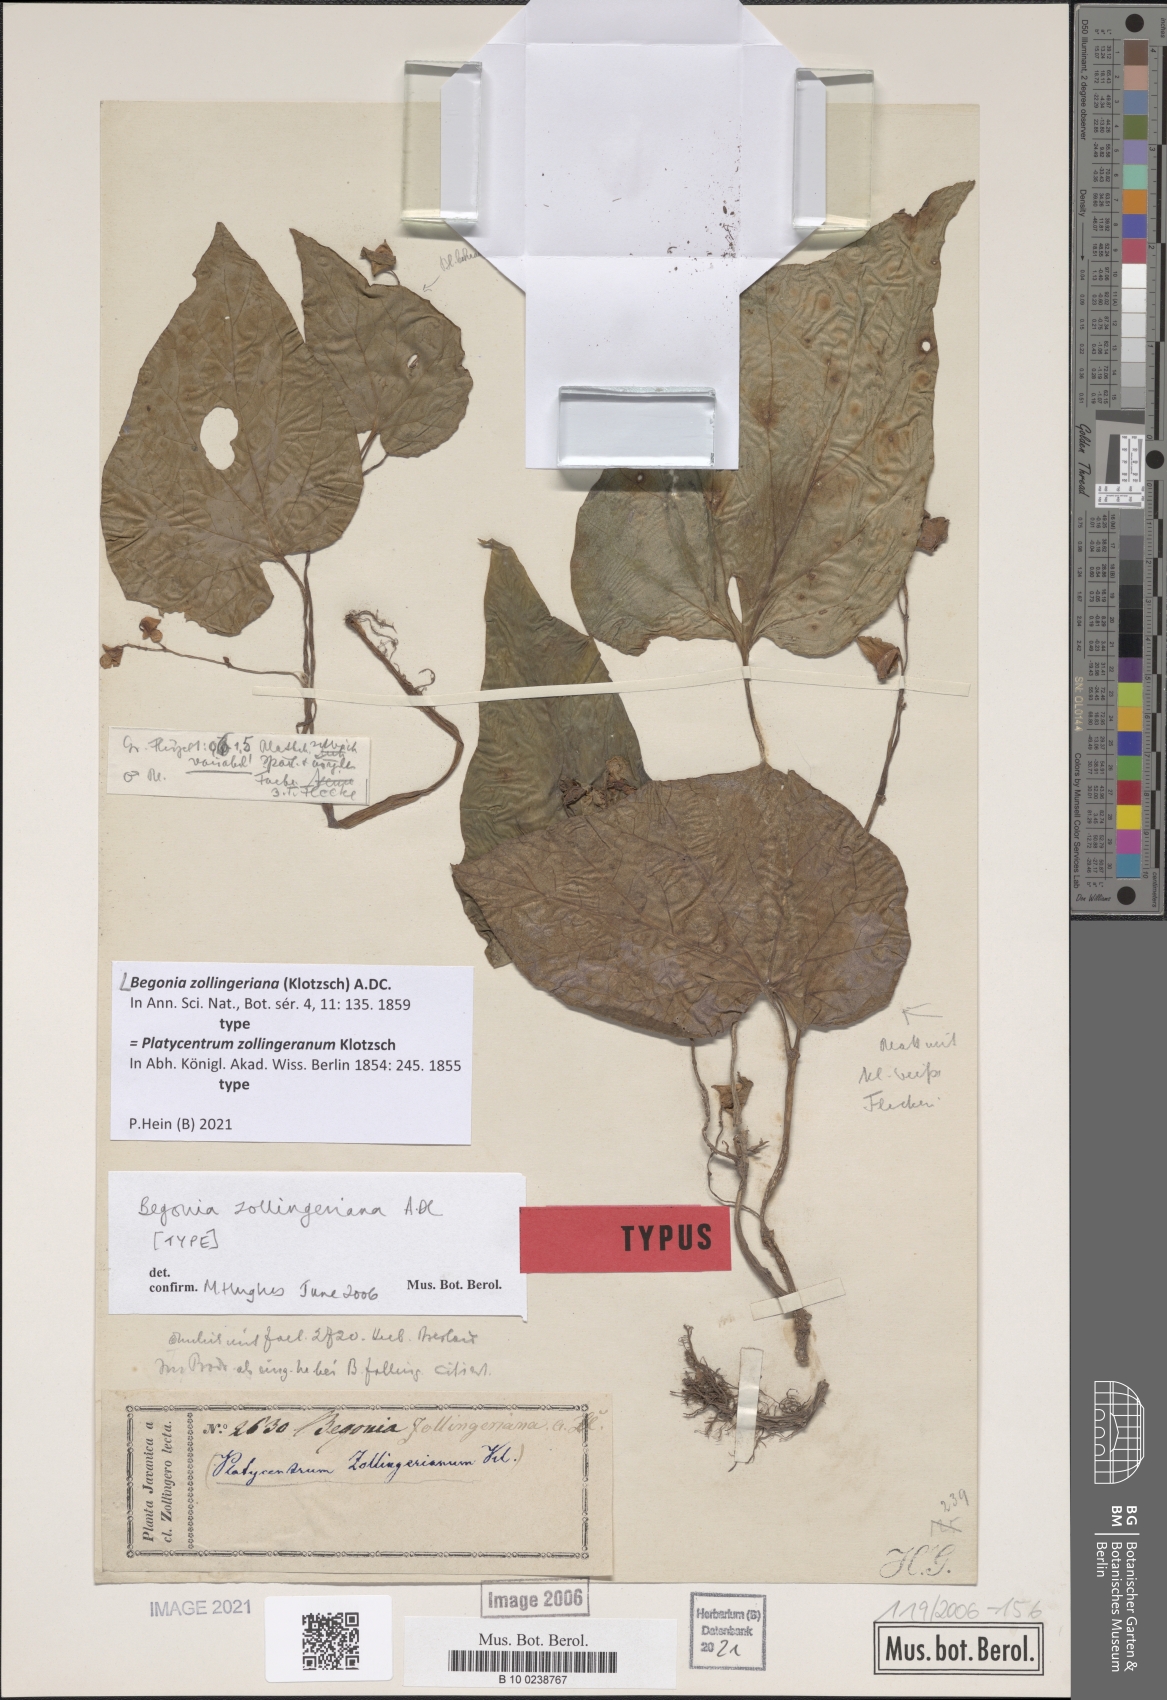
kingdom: Plantae
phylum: Tracheophyta
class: Magnoliopsida
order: Cucurbitales
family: Begoniaceae
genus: Begonia
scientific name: Begonia zollingeriana
